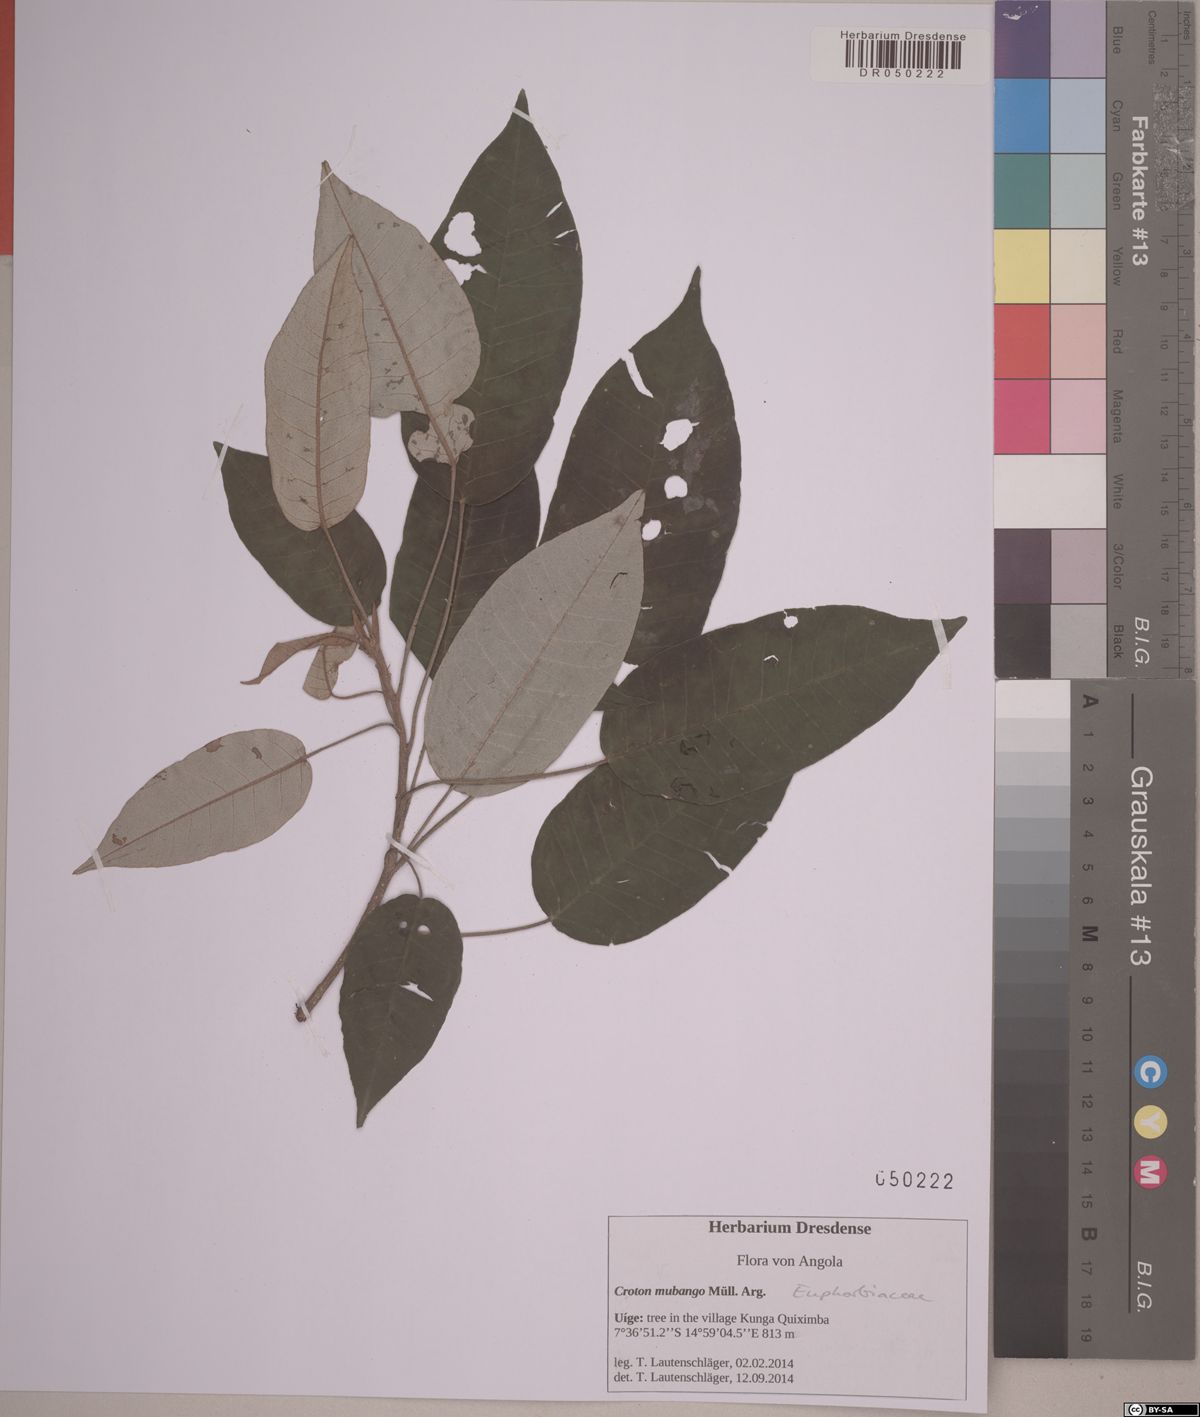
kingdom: Plantae
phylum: Tracheophyta
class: Magnoliopsida
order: Malpighiales
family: Euphorbiaceae
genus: Croton
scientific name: Croton mubango
